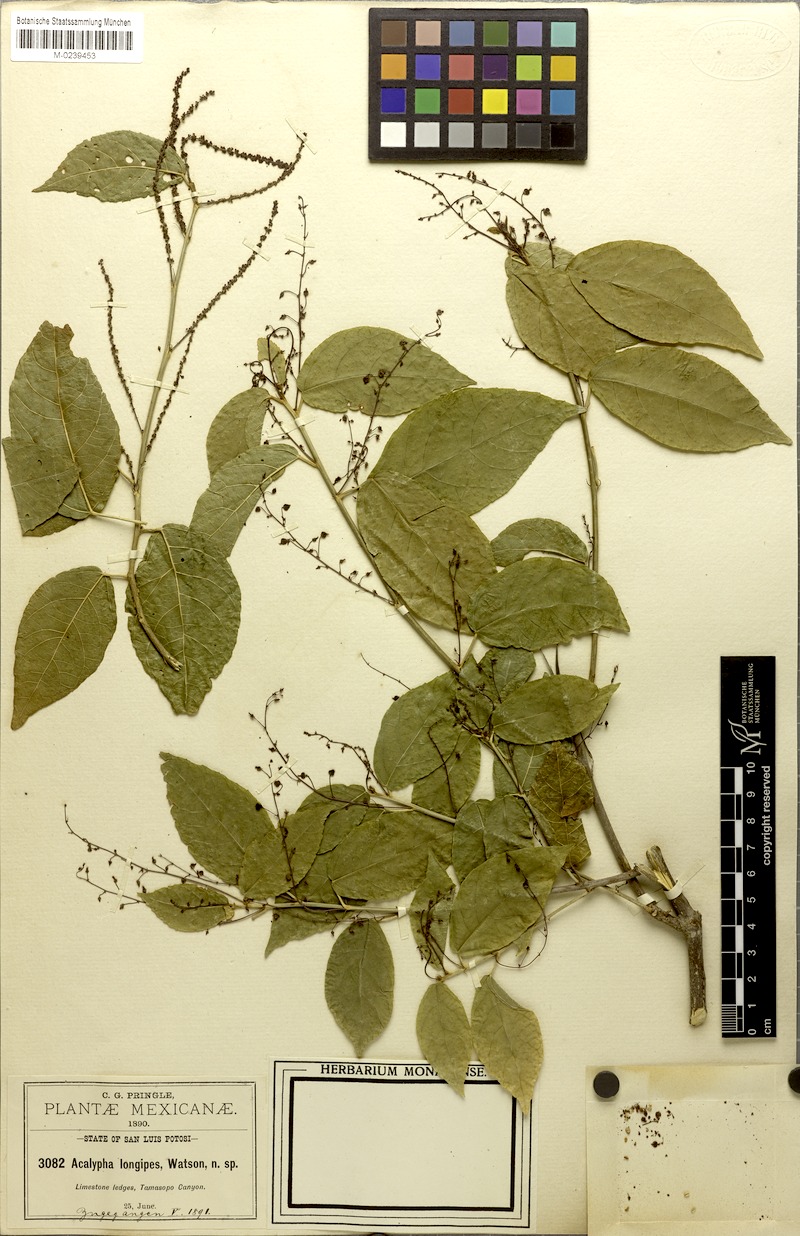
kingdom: Plantae
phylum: Tracheophyta
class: Magnoliopsida
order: Malpighiales
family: Euphorbiaceae
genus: Acalypha
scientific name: Acalypha longipes
